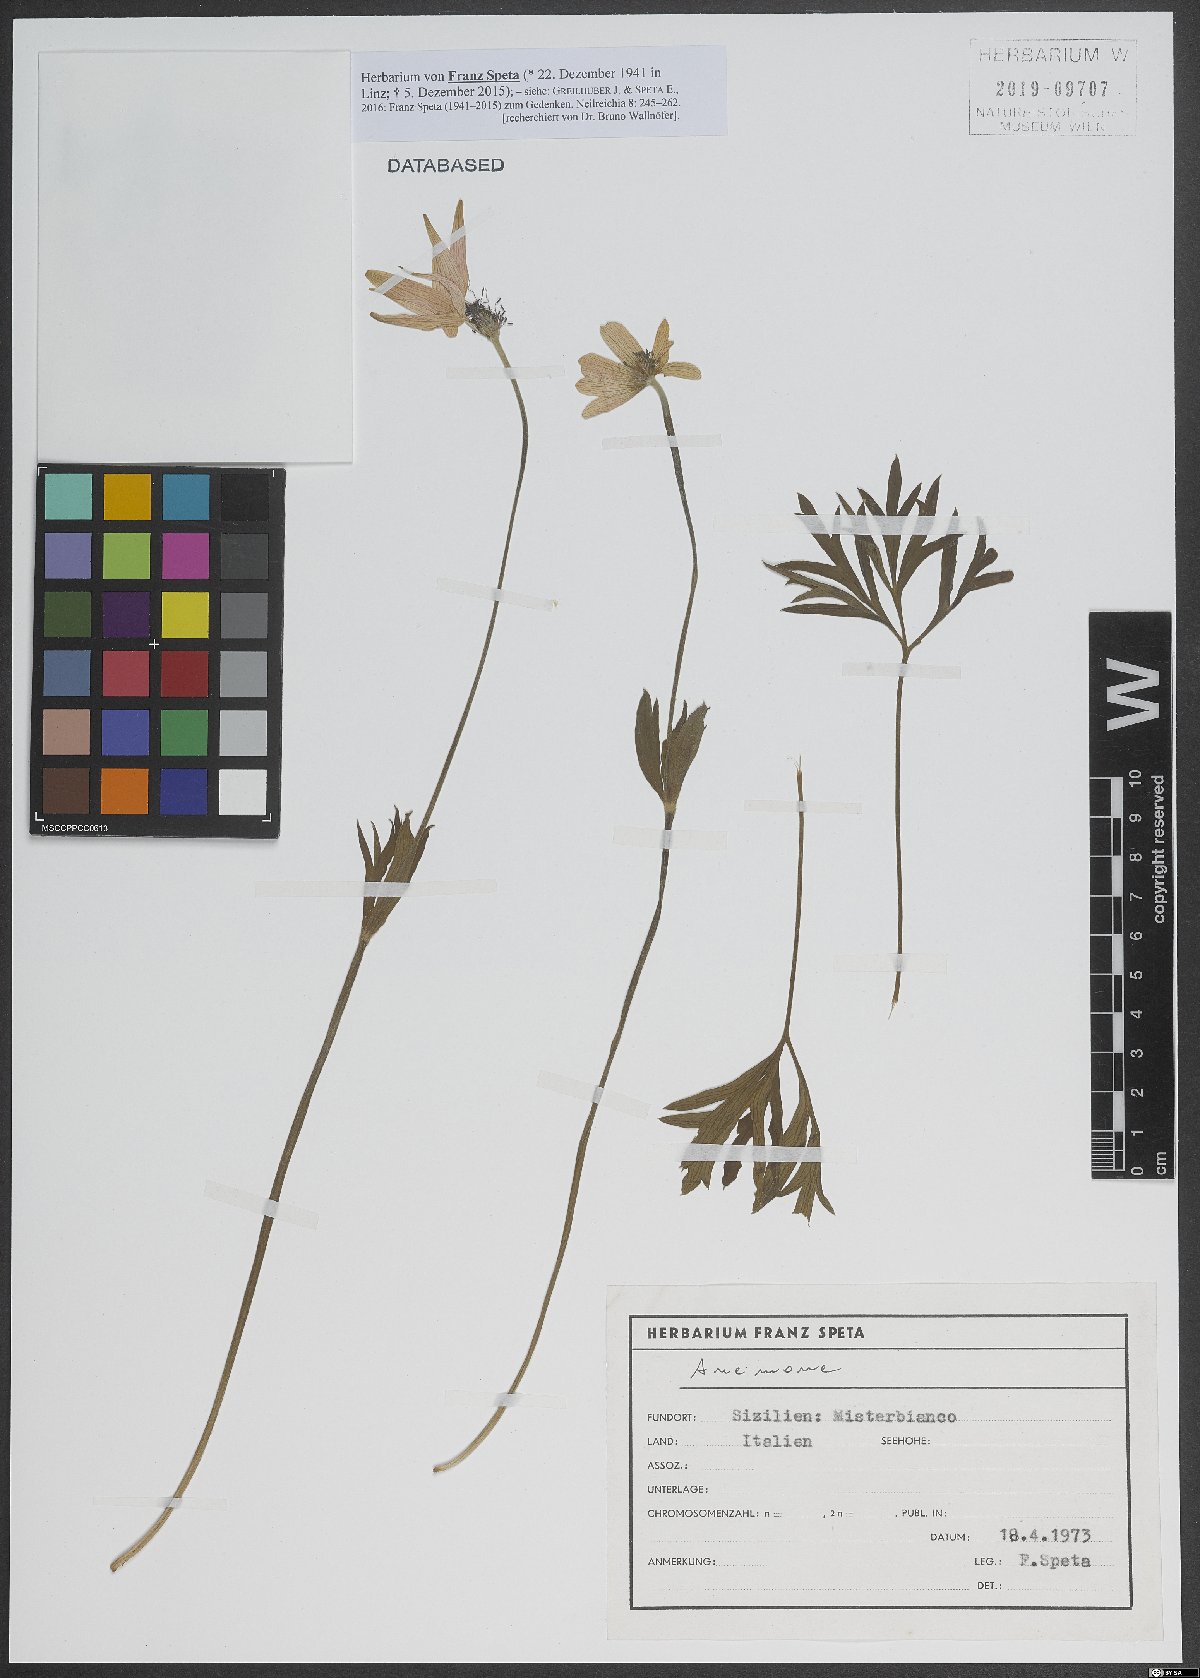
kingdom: Plantae
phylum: Tracheophyta
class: Magnoliopsida
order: Ranunculales
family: Ranunculaceae
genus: Anemone
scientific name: Anemone
